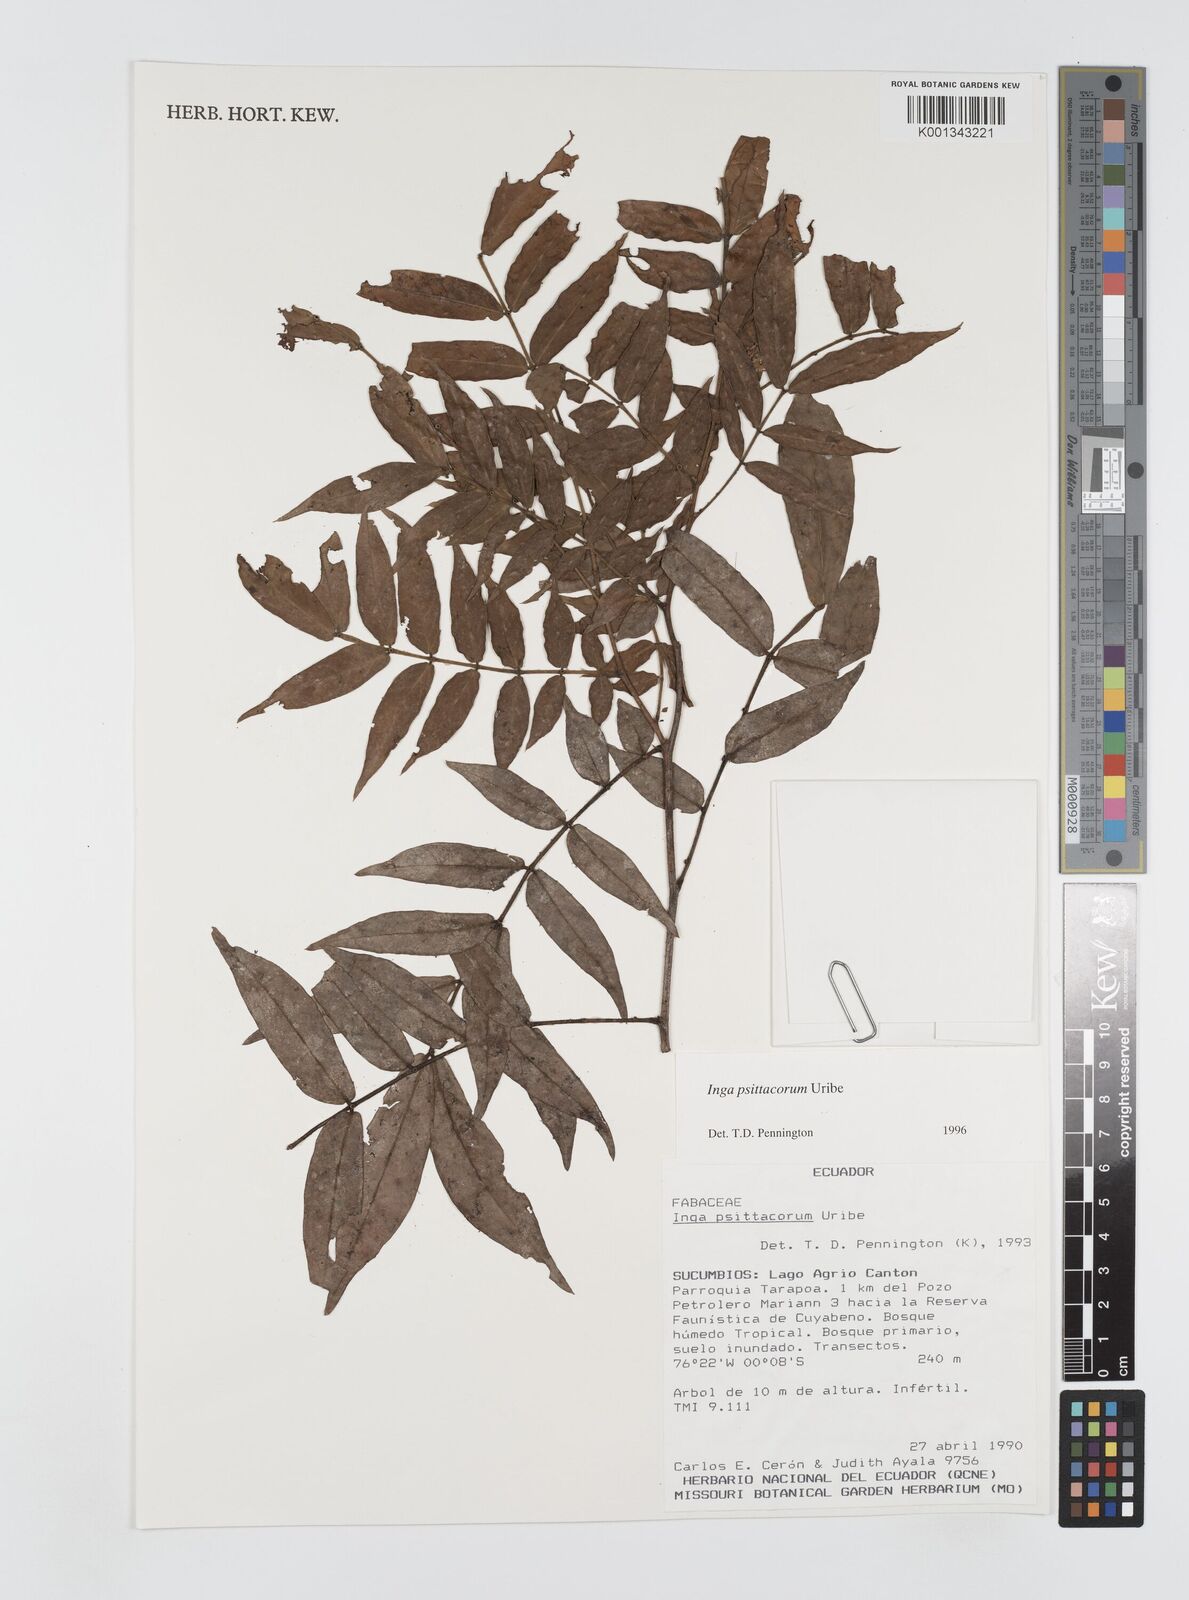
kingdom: Plantae
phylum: Tracheophyta
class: Magnoliopsida
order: Fabales
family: Fabaceae
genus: Inga
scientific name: Inga psittacorum
